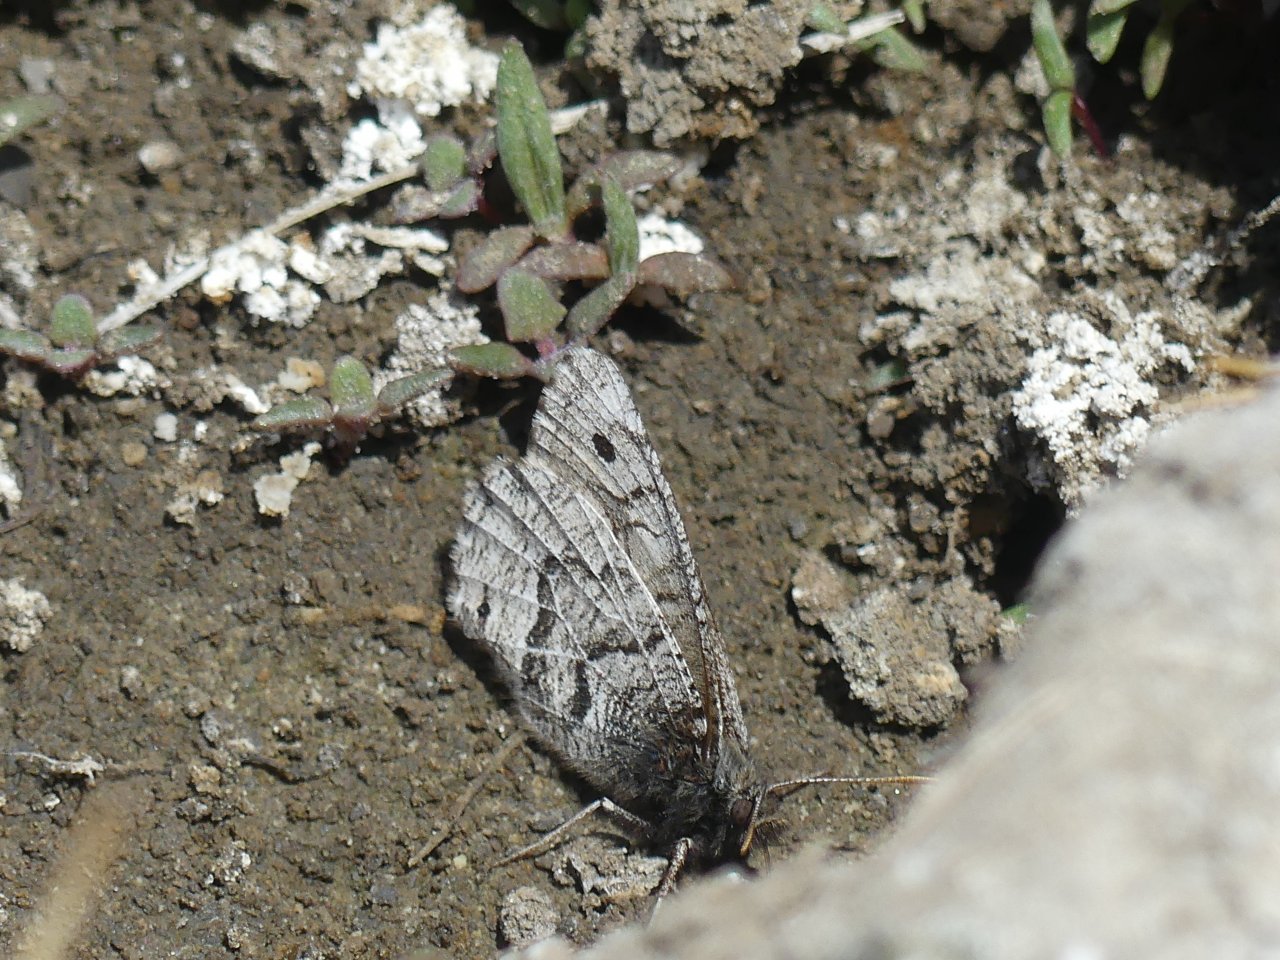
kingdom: Animalia
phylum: Arthropoda
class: Insecta
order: Lepidoptera
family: Nymphalidae
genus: Oeneis
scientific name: Oeneis alberta
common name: Alberta Arctic
